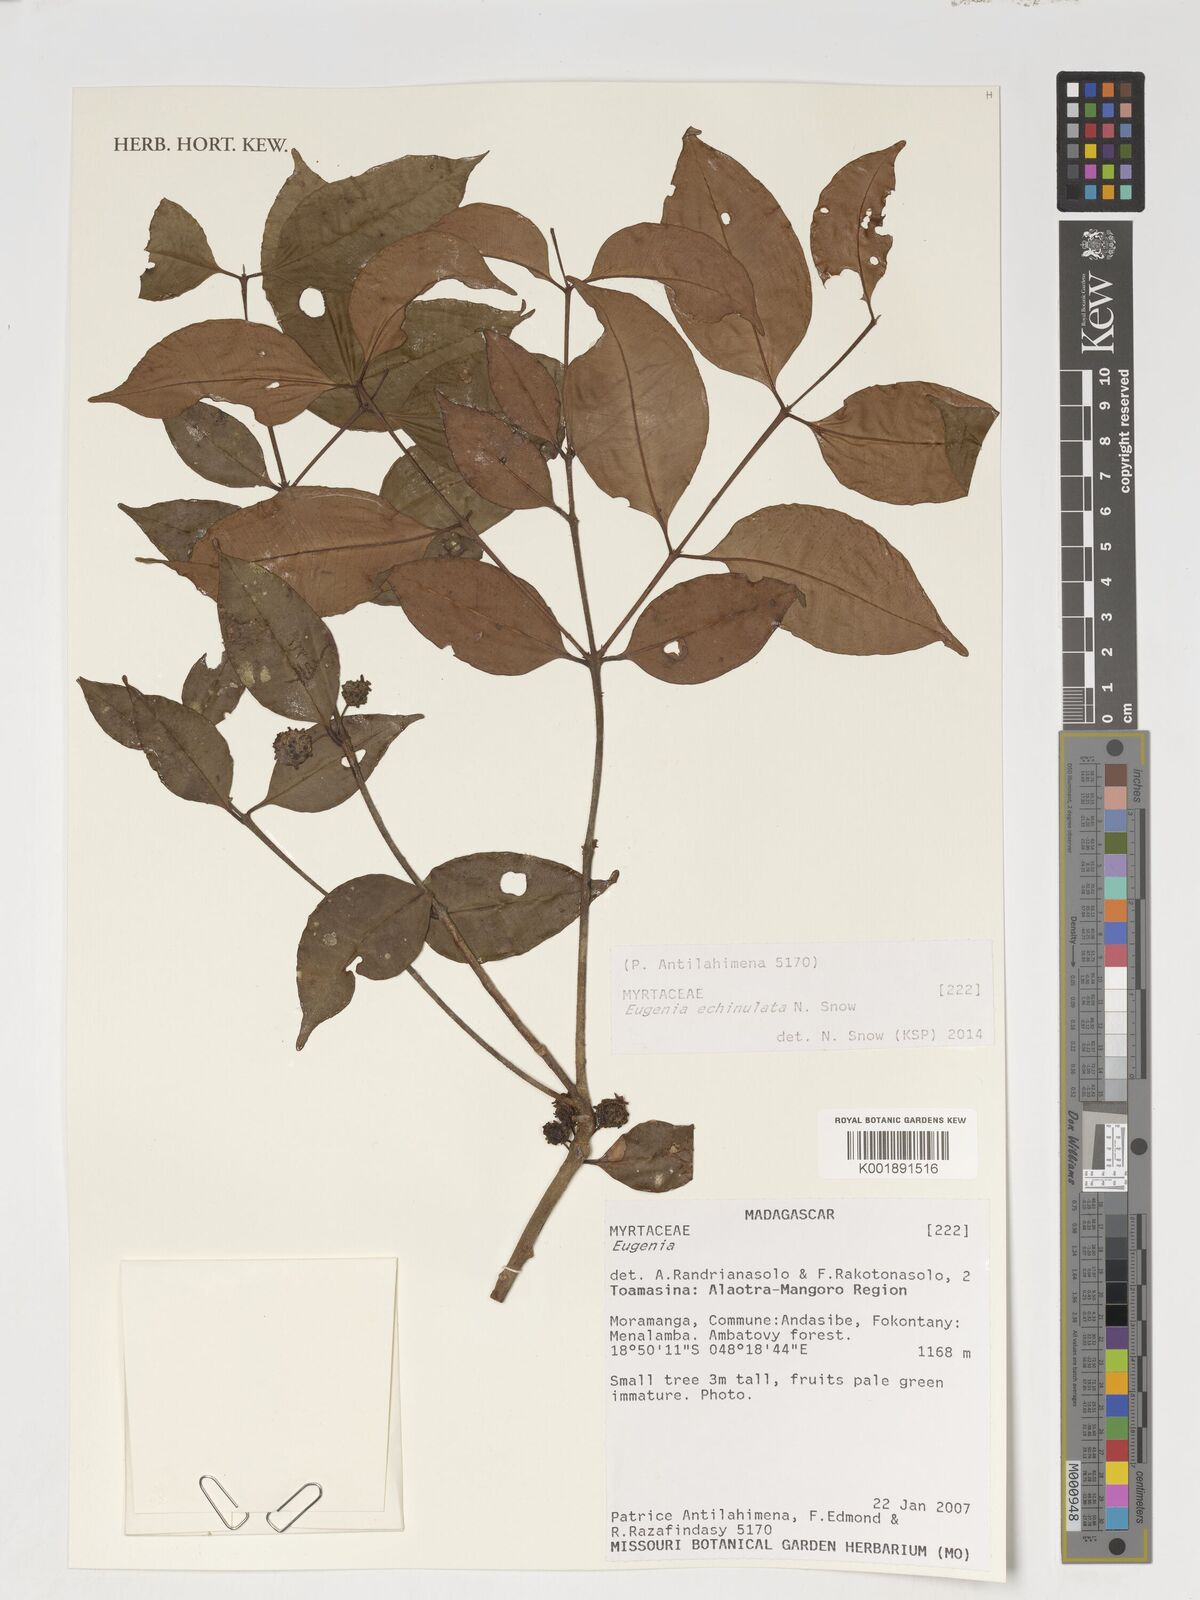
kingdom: Plantae
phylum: Tracheophyta
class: Magnoliopsida
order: Myrtales
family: Myrtaceae
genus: Eugenia
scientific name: Eugenia echinulata
